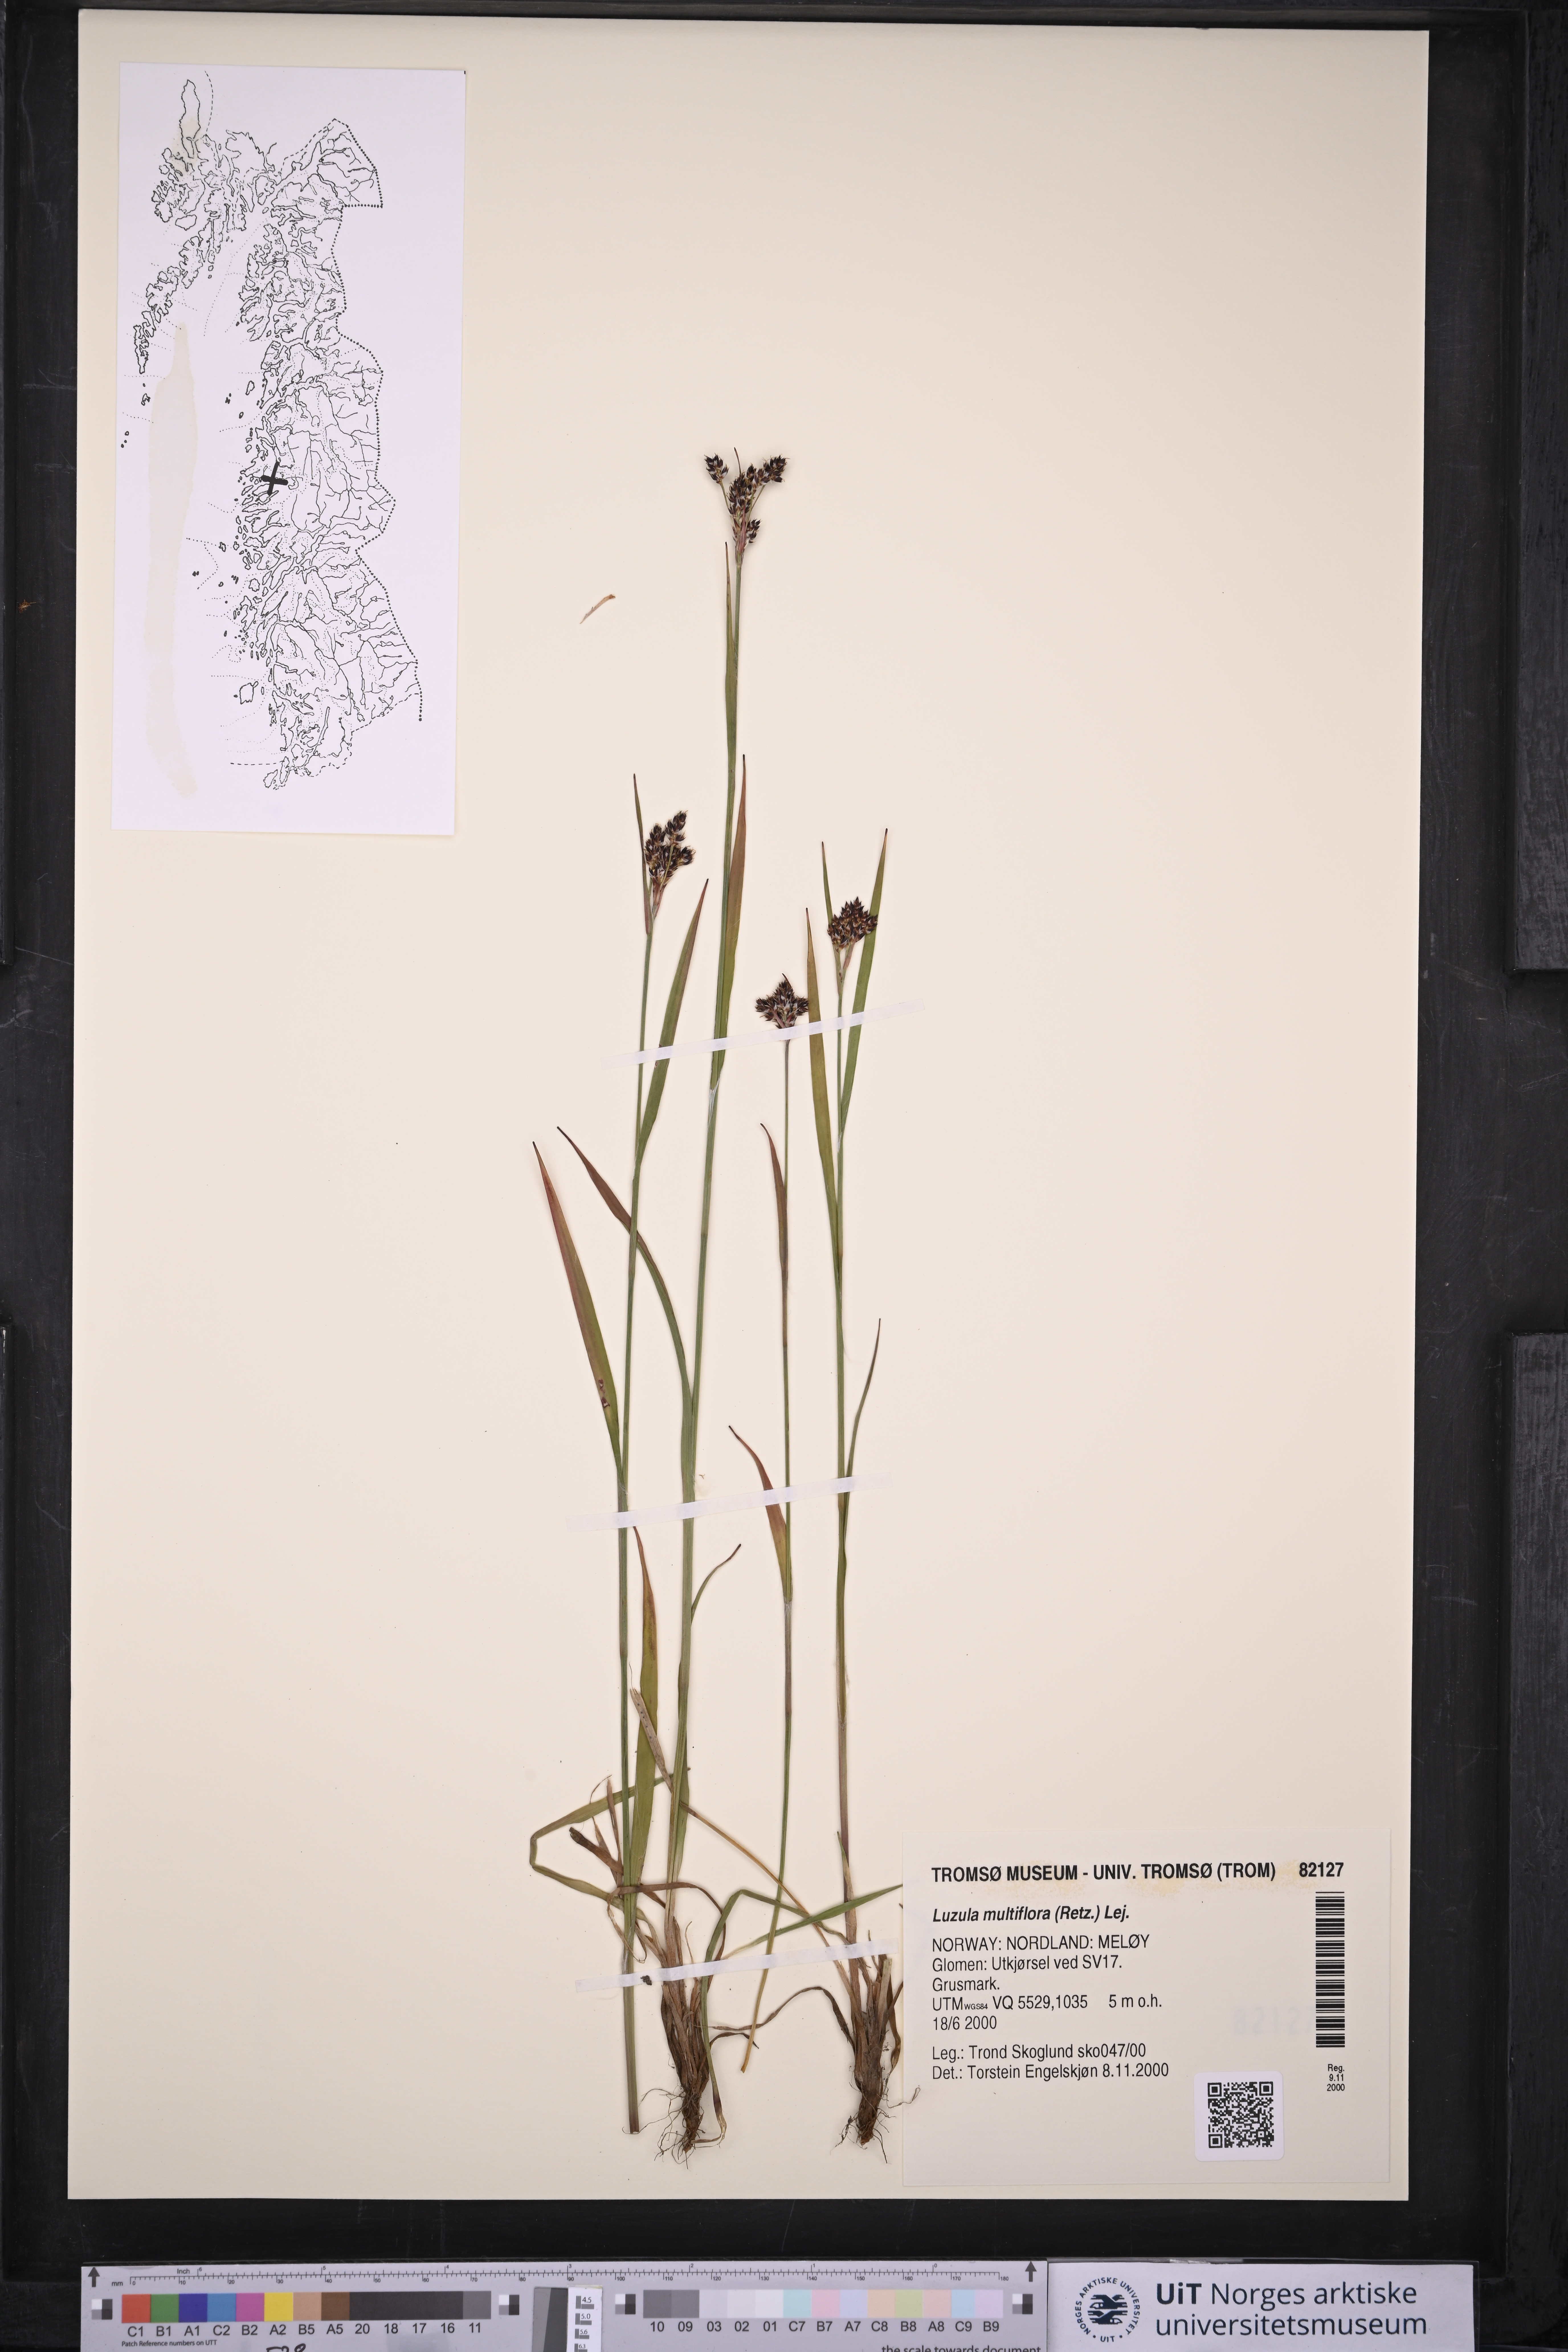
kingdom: Plantae
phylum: Tracheophyta
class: Liliopsida
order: Poales
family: Juncaceae
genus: Luzula
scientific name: Luzula multiflora
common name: Heath wood-rush
